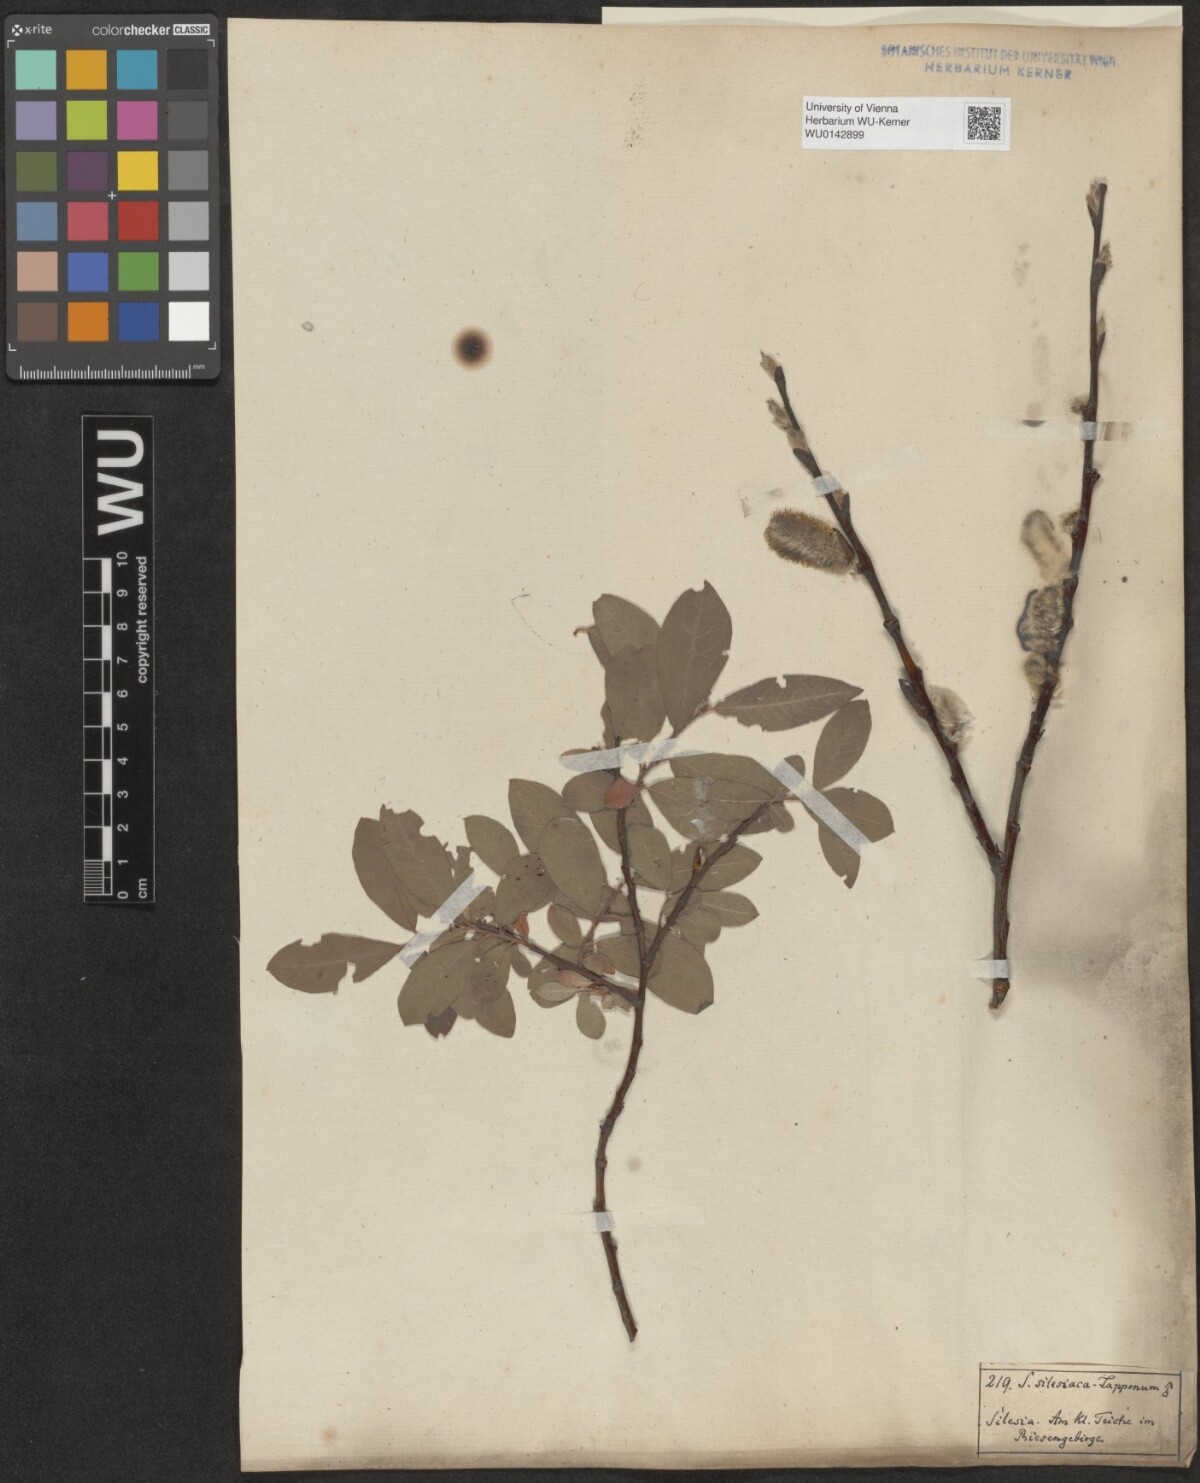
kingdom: Plantae
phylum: Tracheophyta
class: Magnoliopsida
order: Malpighiales
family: Salicaceae
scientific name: Salicaceae
